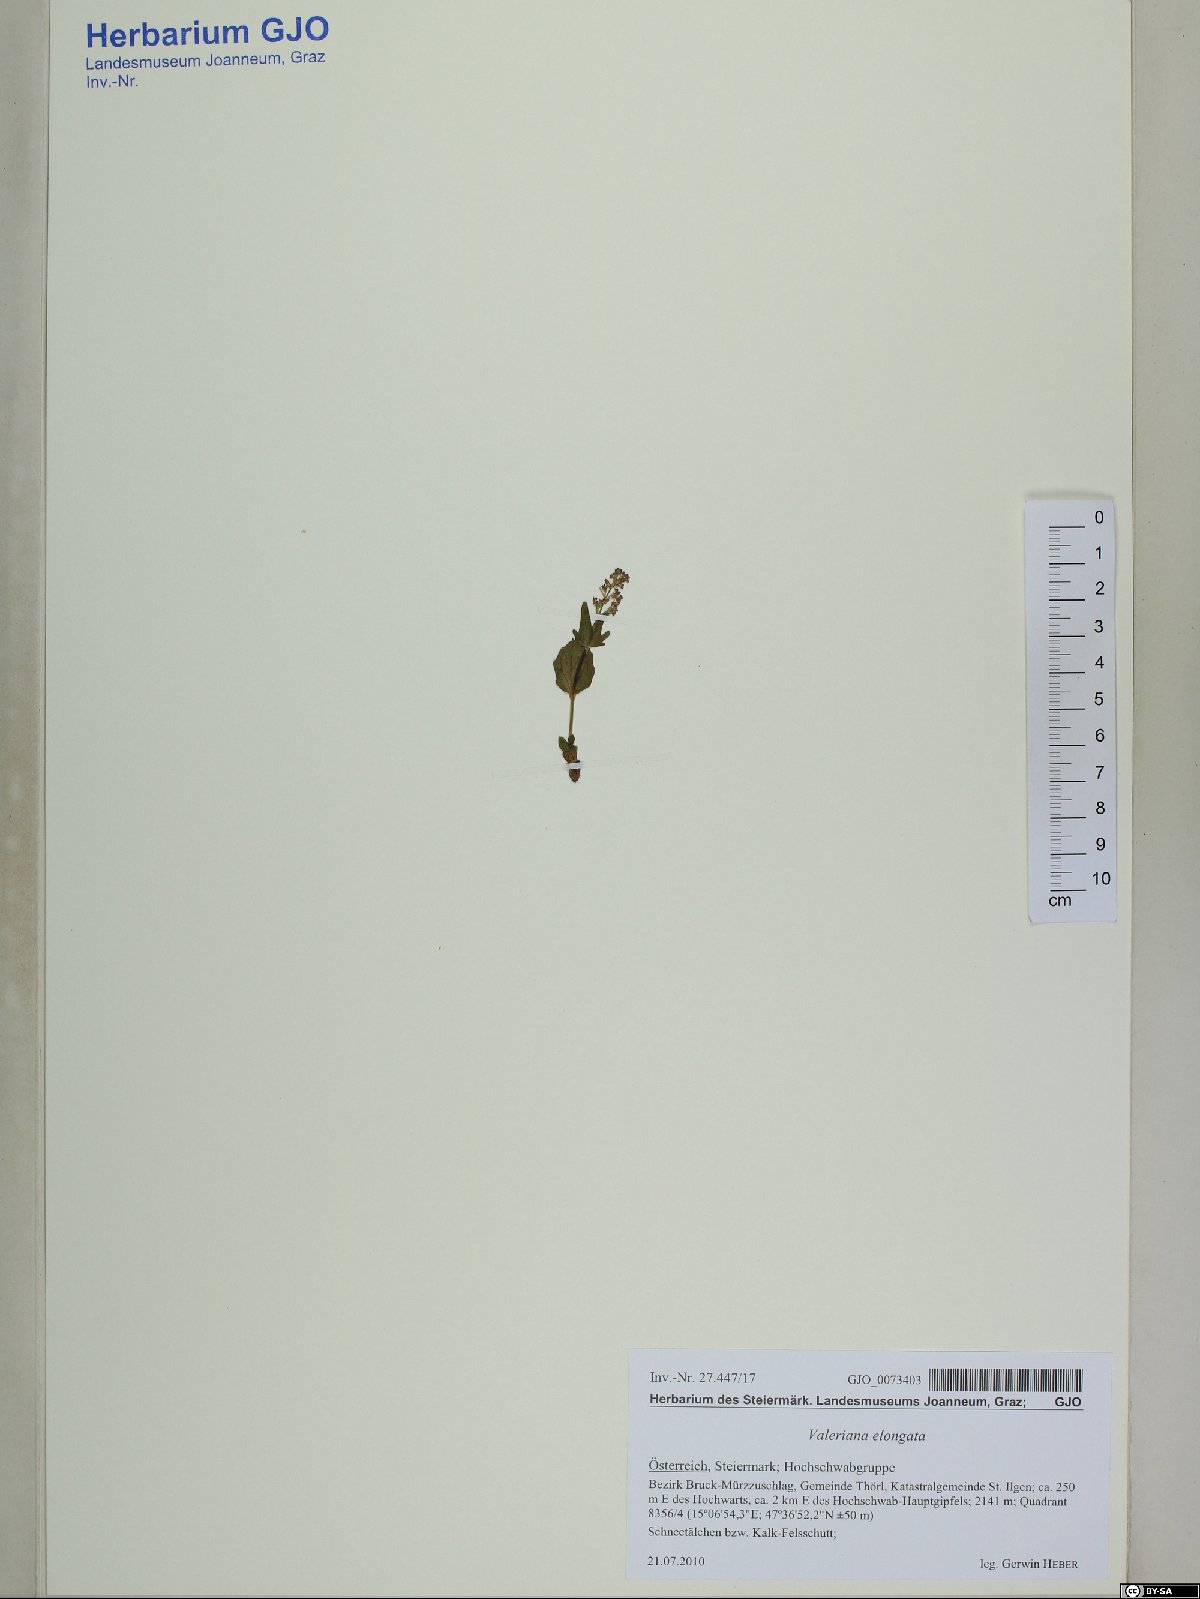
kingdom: Plantae
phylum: Tracheophyta
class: Magnoliopsida
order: Dipsacales
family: Caprifoliaceae
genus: Valeriana
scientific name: Valeriana elongata
